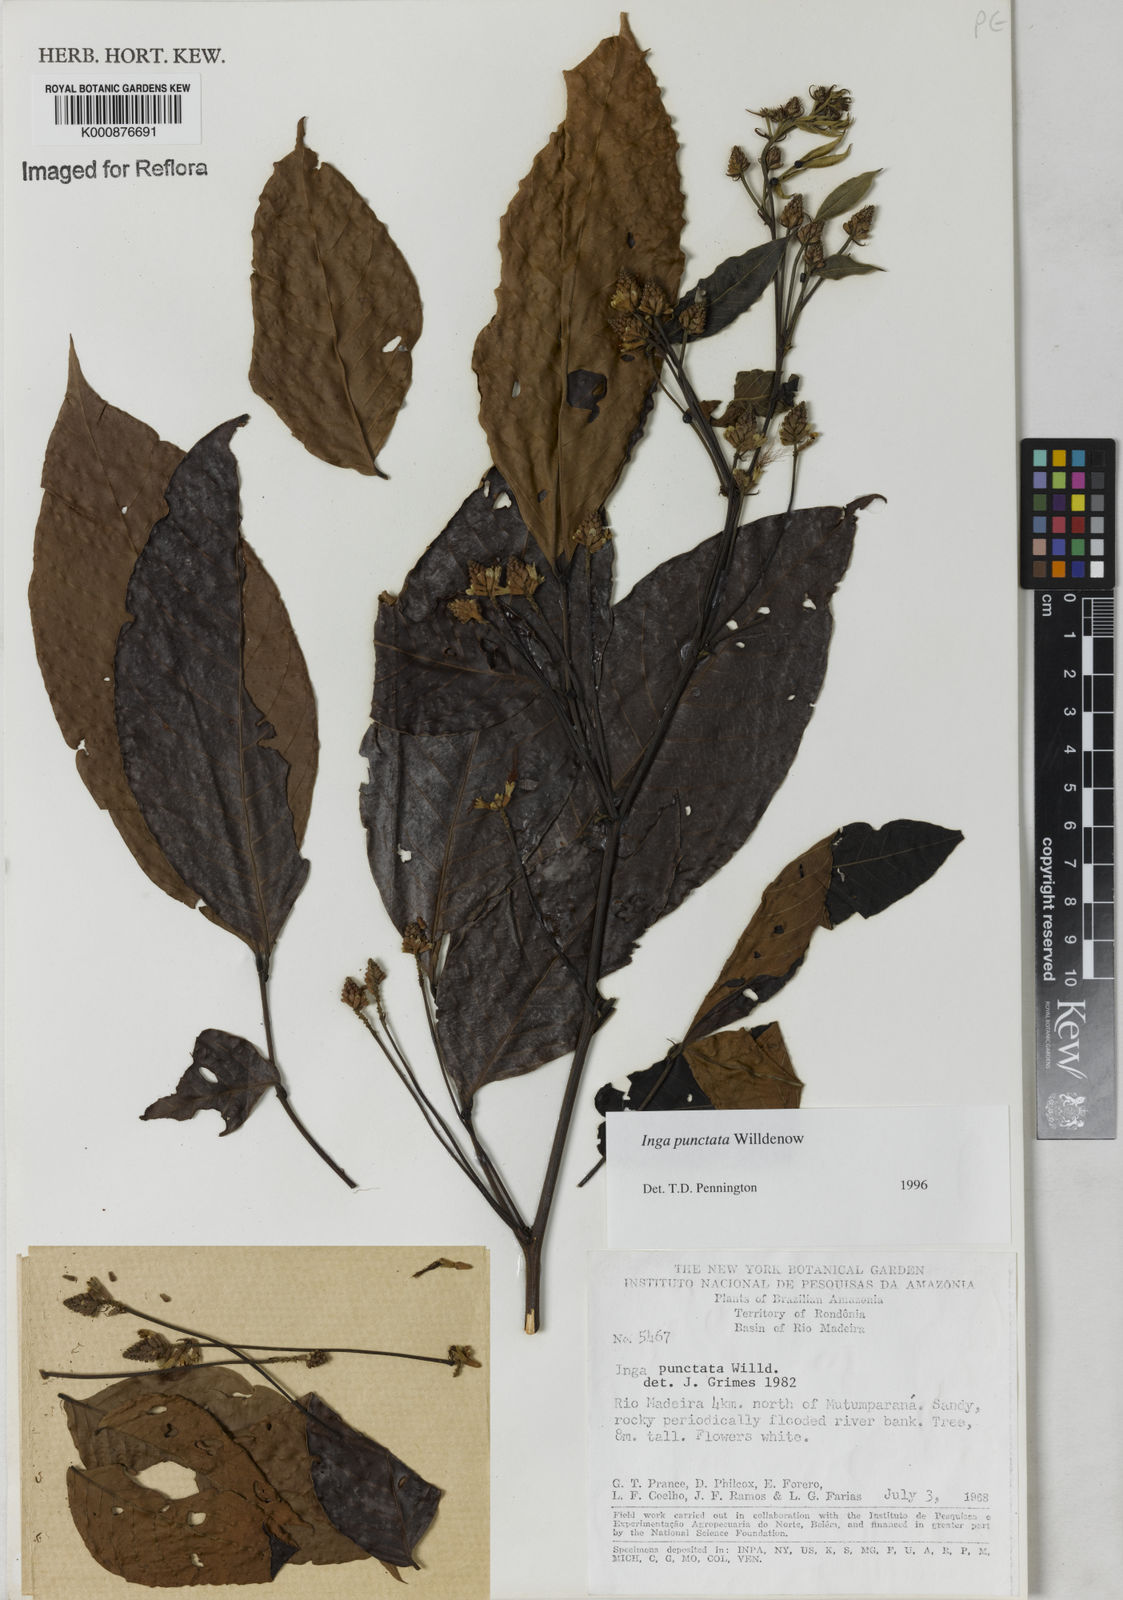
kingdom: Plantae
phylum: Tracheophyta
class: Magnoliopsida
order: Fabales
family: Fabaceae
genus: Inga
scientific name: Inga punctata
